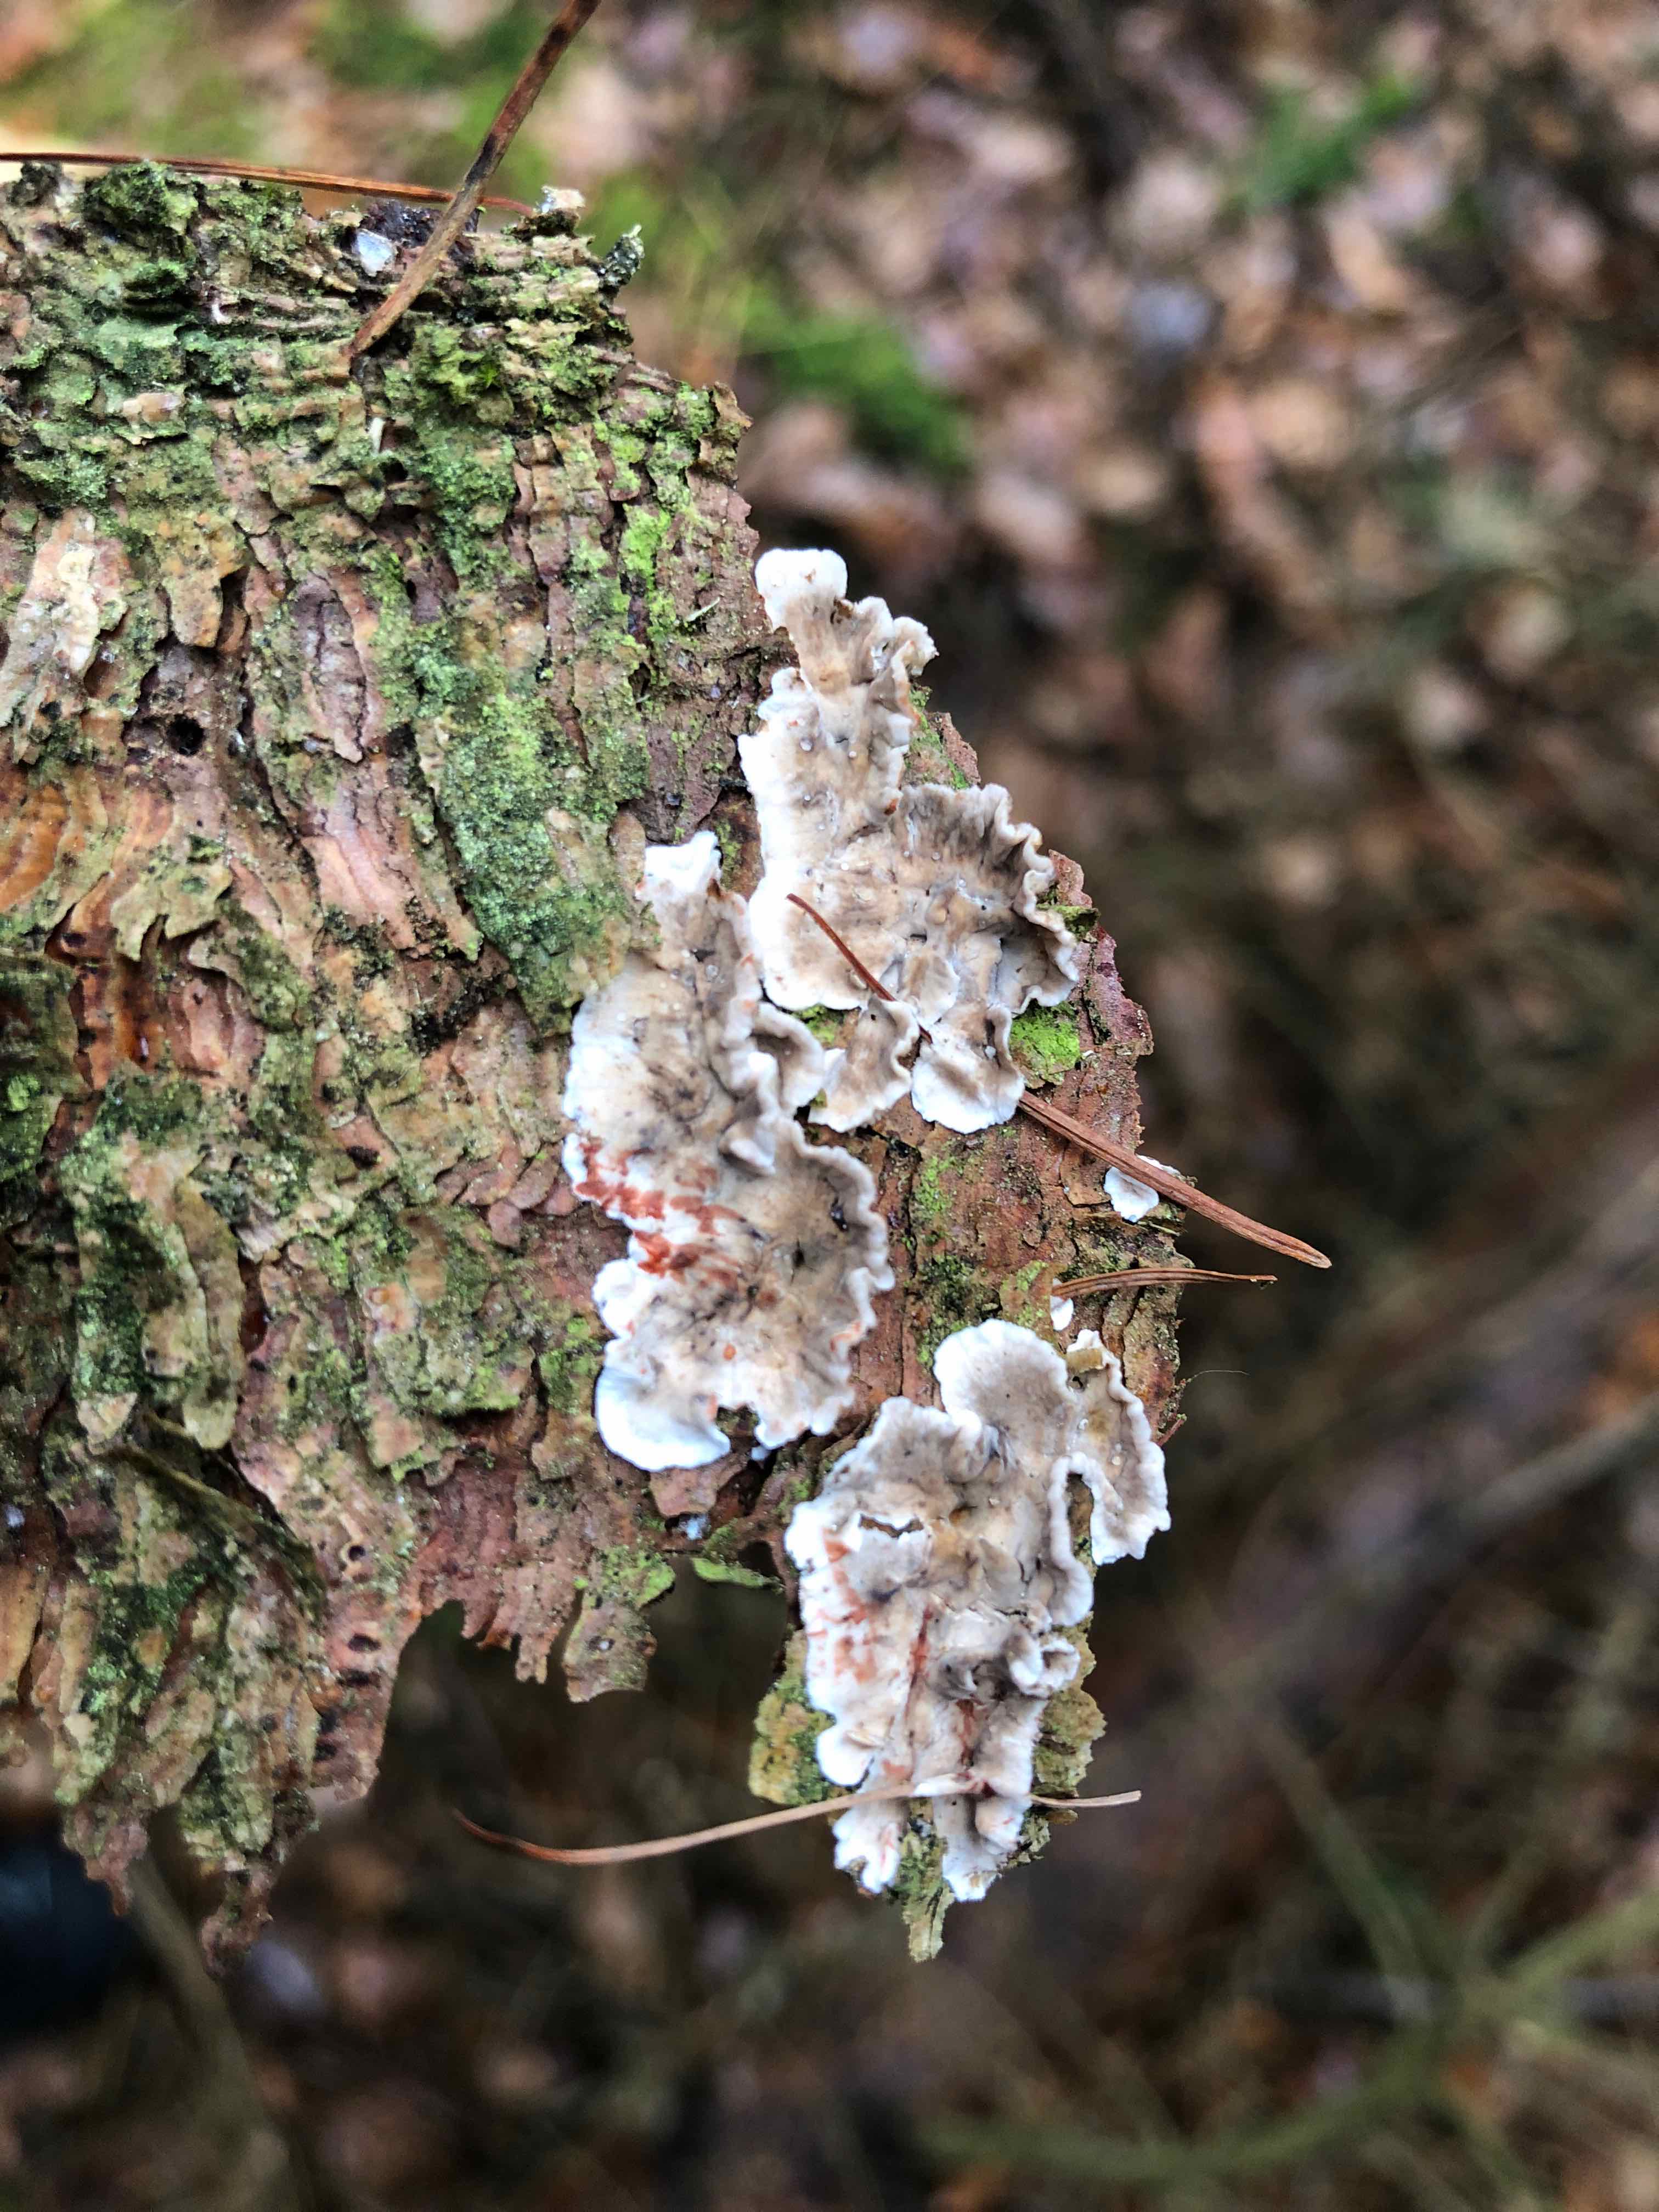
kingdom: Fungi
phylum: Basidiomycota
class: Agaricomycetes
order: Russulales
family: Stereaceae
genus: Stereum
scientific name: Stereum sanguinolentum
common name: blødende lædersvamp
